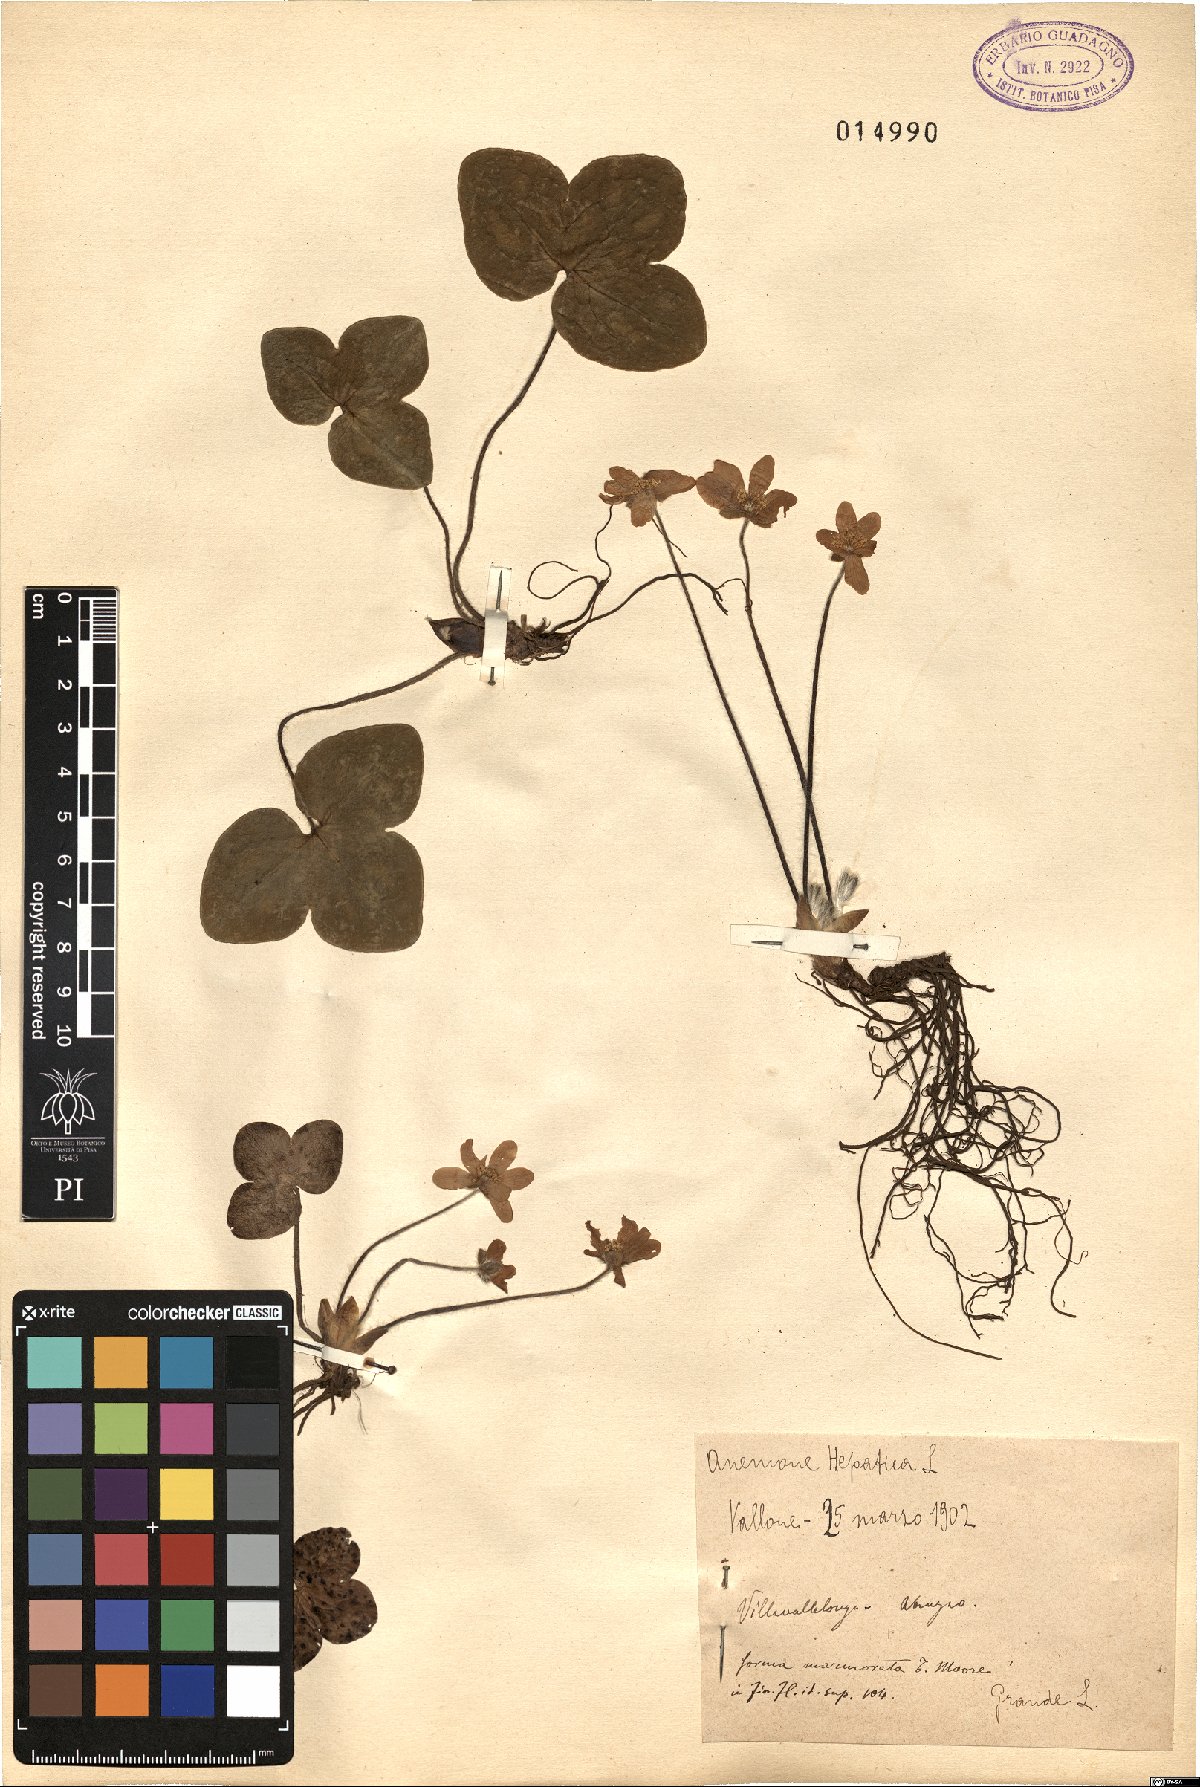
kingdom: Plantae
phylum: Tracheophyta
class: Magnoliopsida
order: Ranunculales
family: Ranunculaceae
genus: Hepatica
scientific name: Hepatica nobilis
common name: Liverleaf
